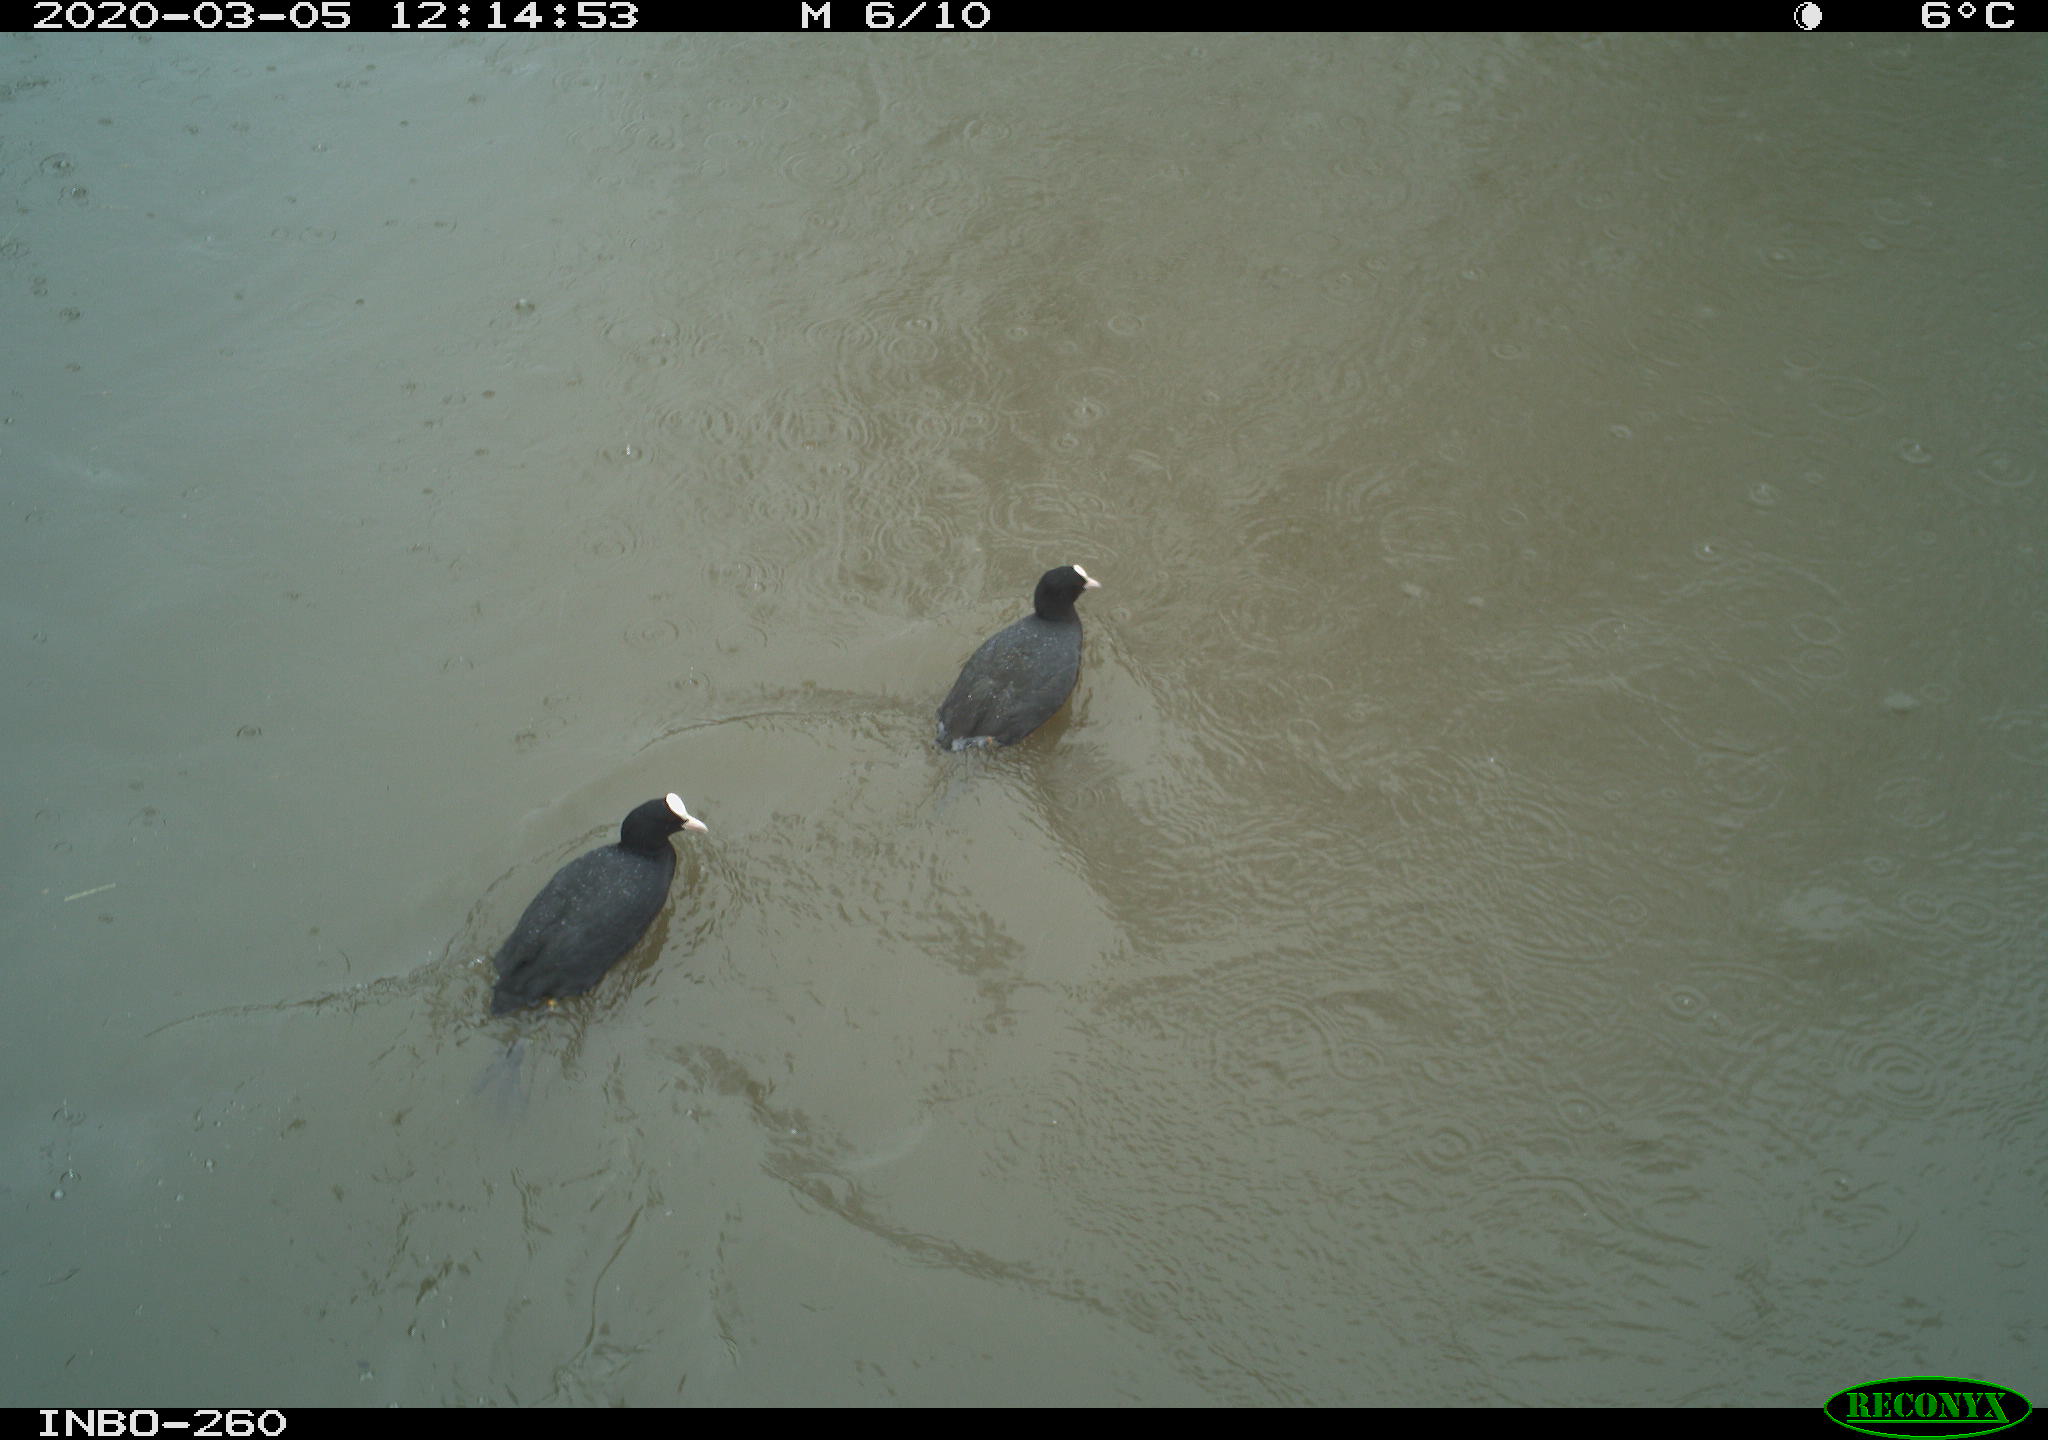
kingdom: Animalia
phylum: Chordata
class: Aves
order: Gruiformes
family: Rallidae
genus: Fulica
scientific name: Fulica atra
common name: Eurasian coot
